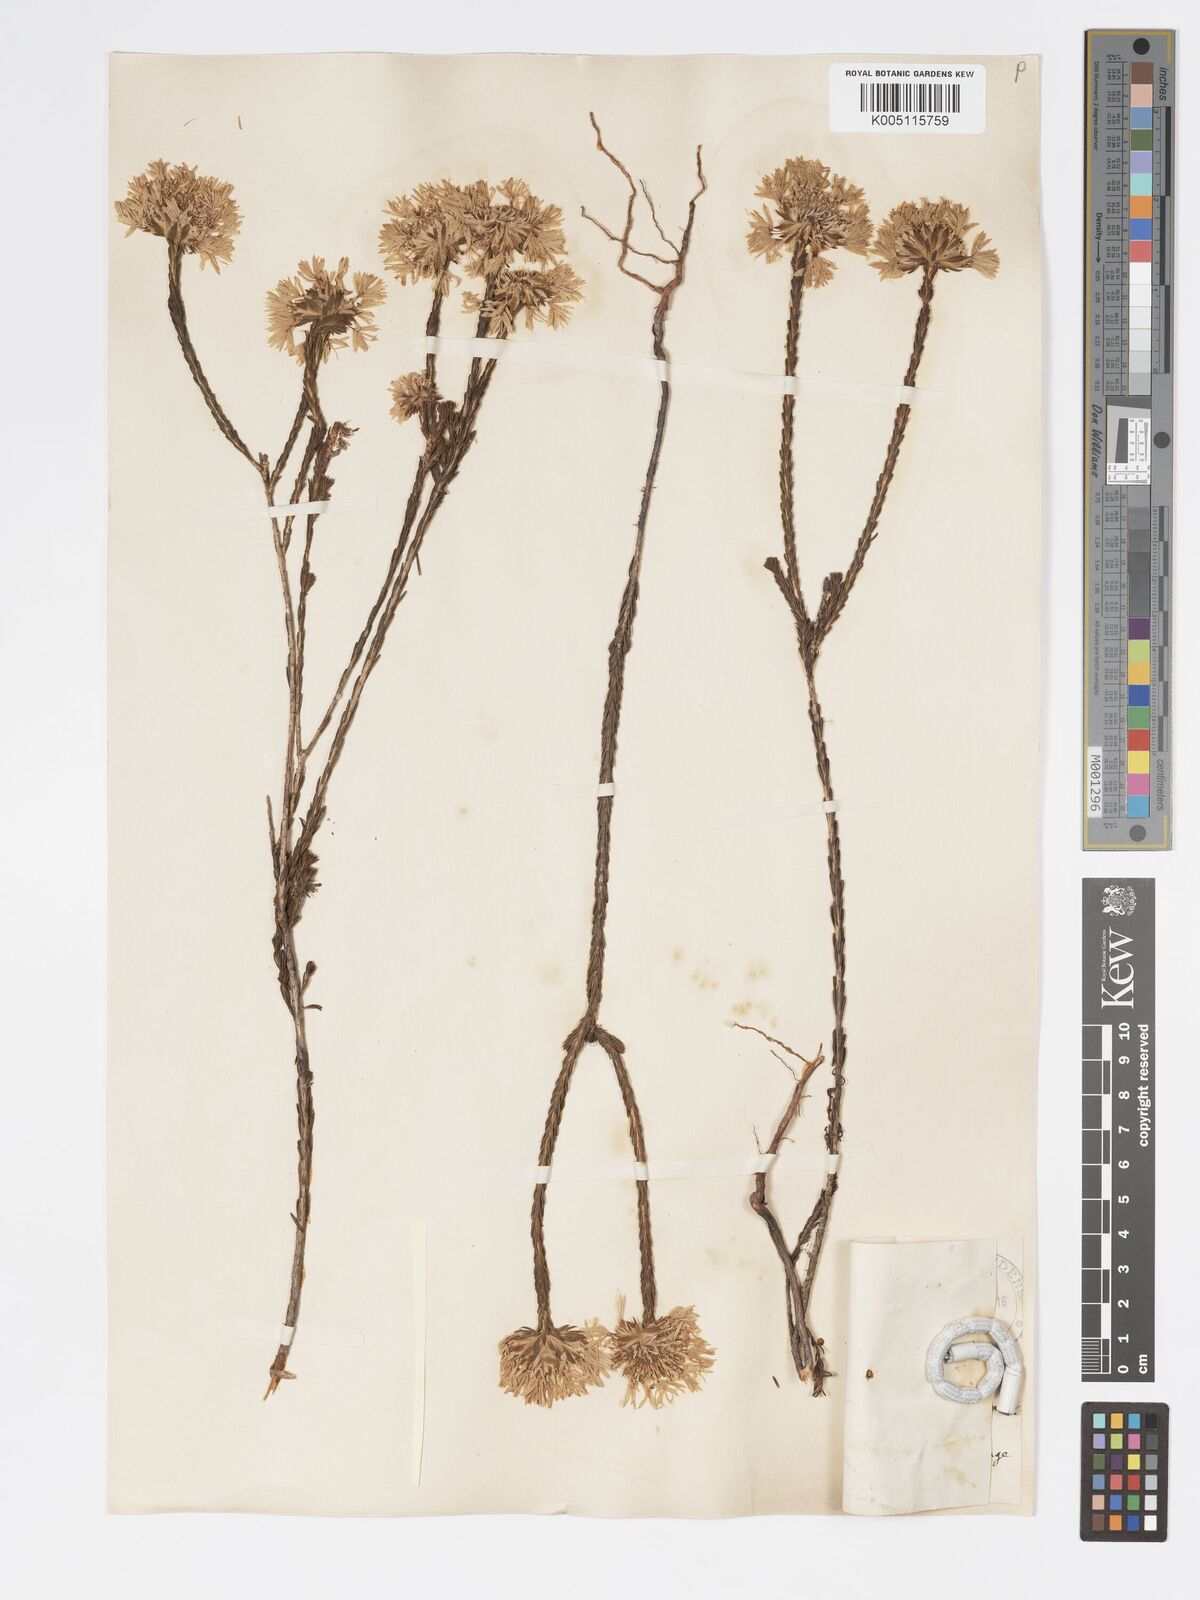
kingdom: Plantae
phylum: Tracheophyta
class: Magnoliopsida
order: Myrtales
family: Myrtaceae
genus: Actinodium
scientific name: Actinodium cunninghamii
